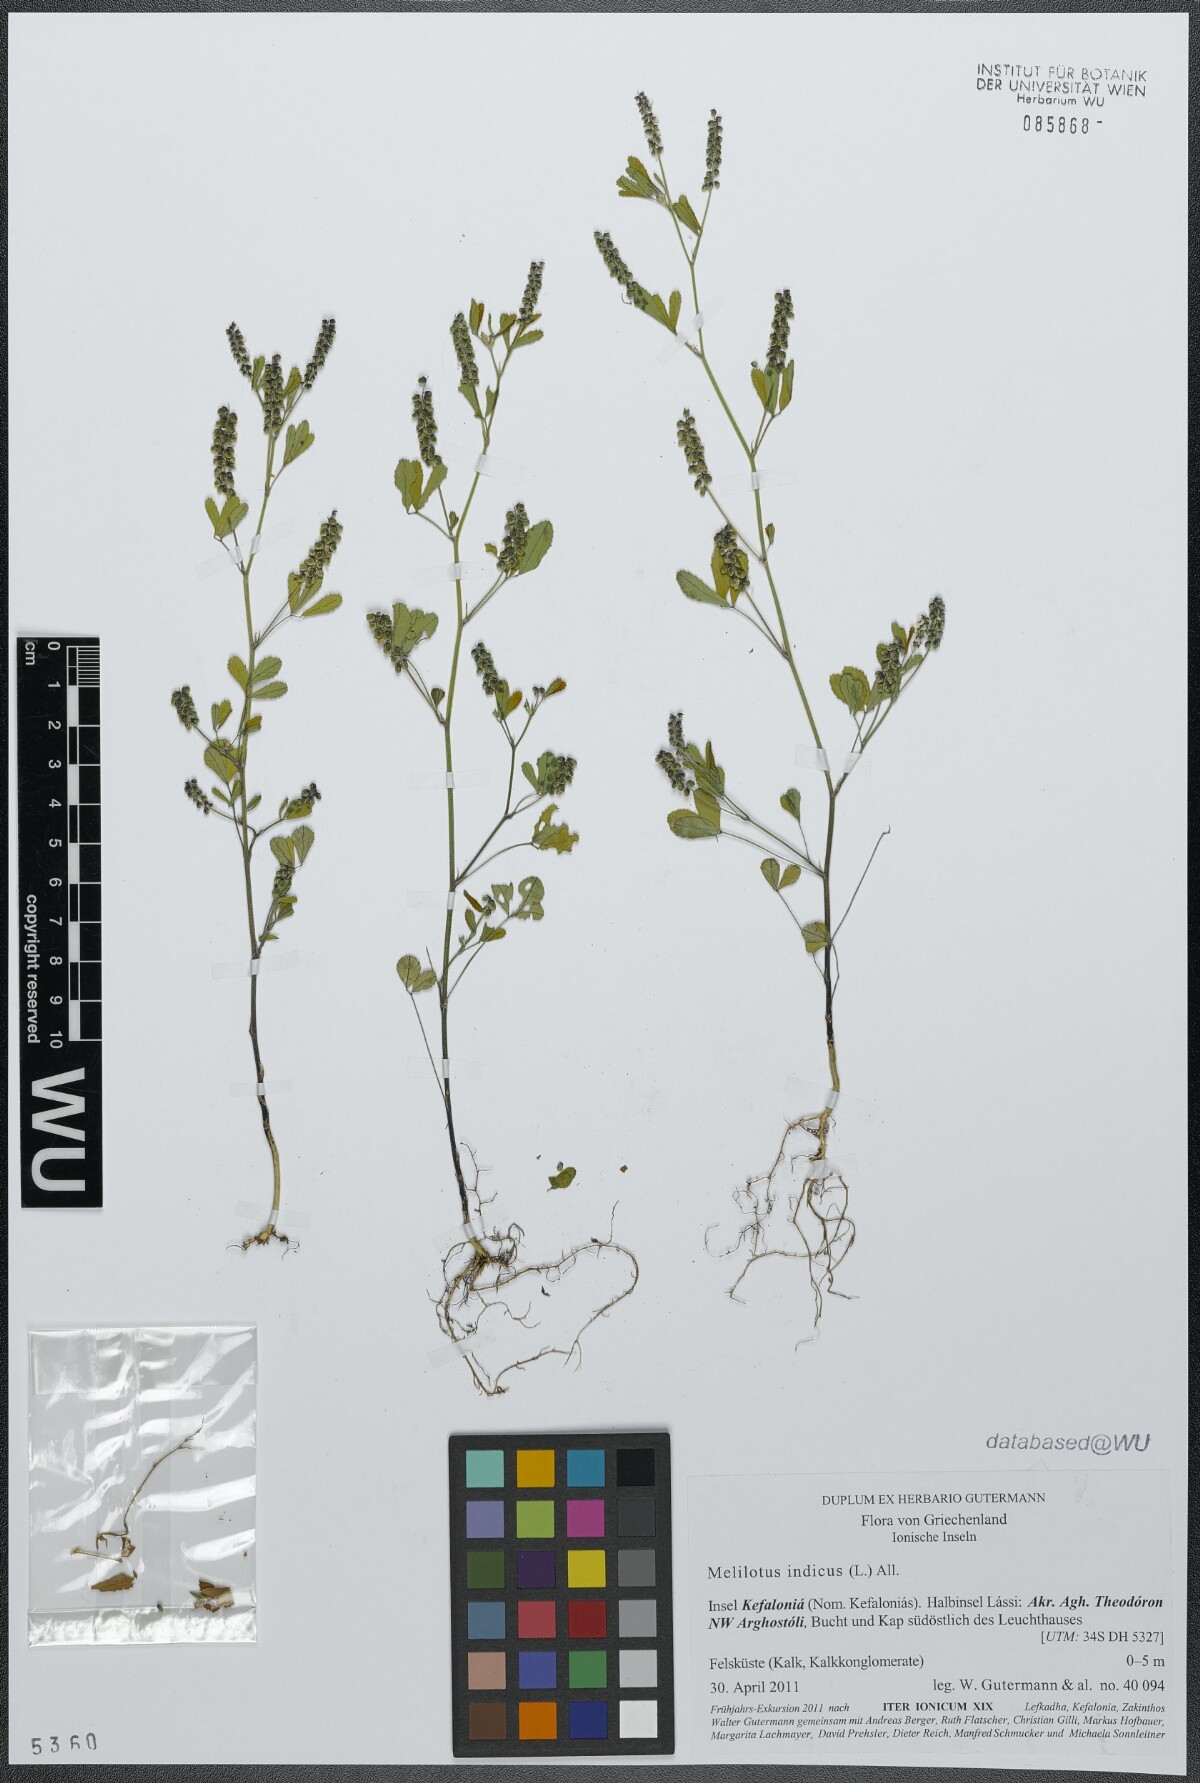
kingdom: Plantae
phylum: Tracheophyta
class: Magnoliopsida
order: Fabales
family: Fabaceae
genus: Melilotus
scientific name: Melilotus indicus
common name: Small melilot
